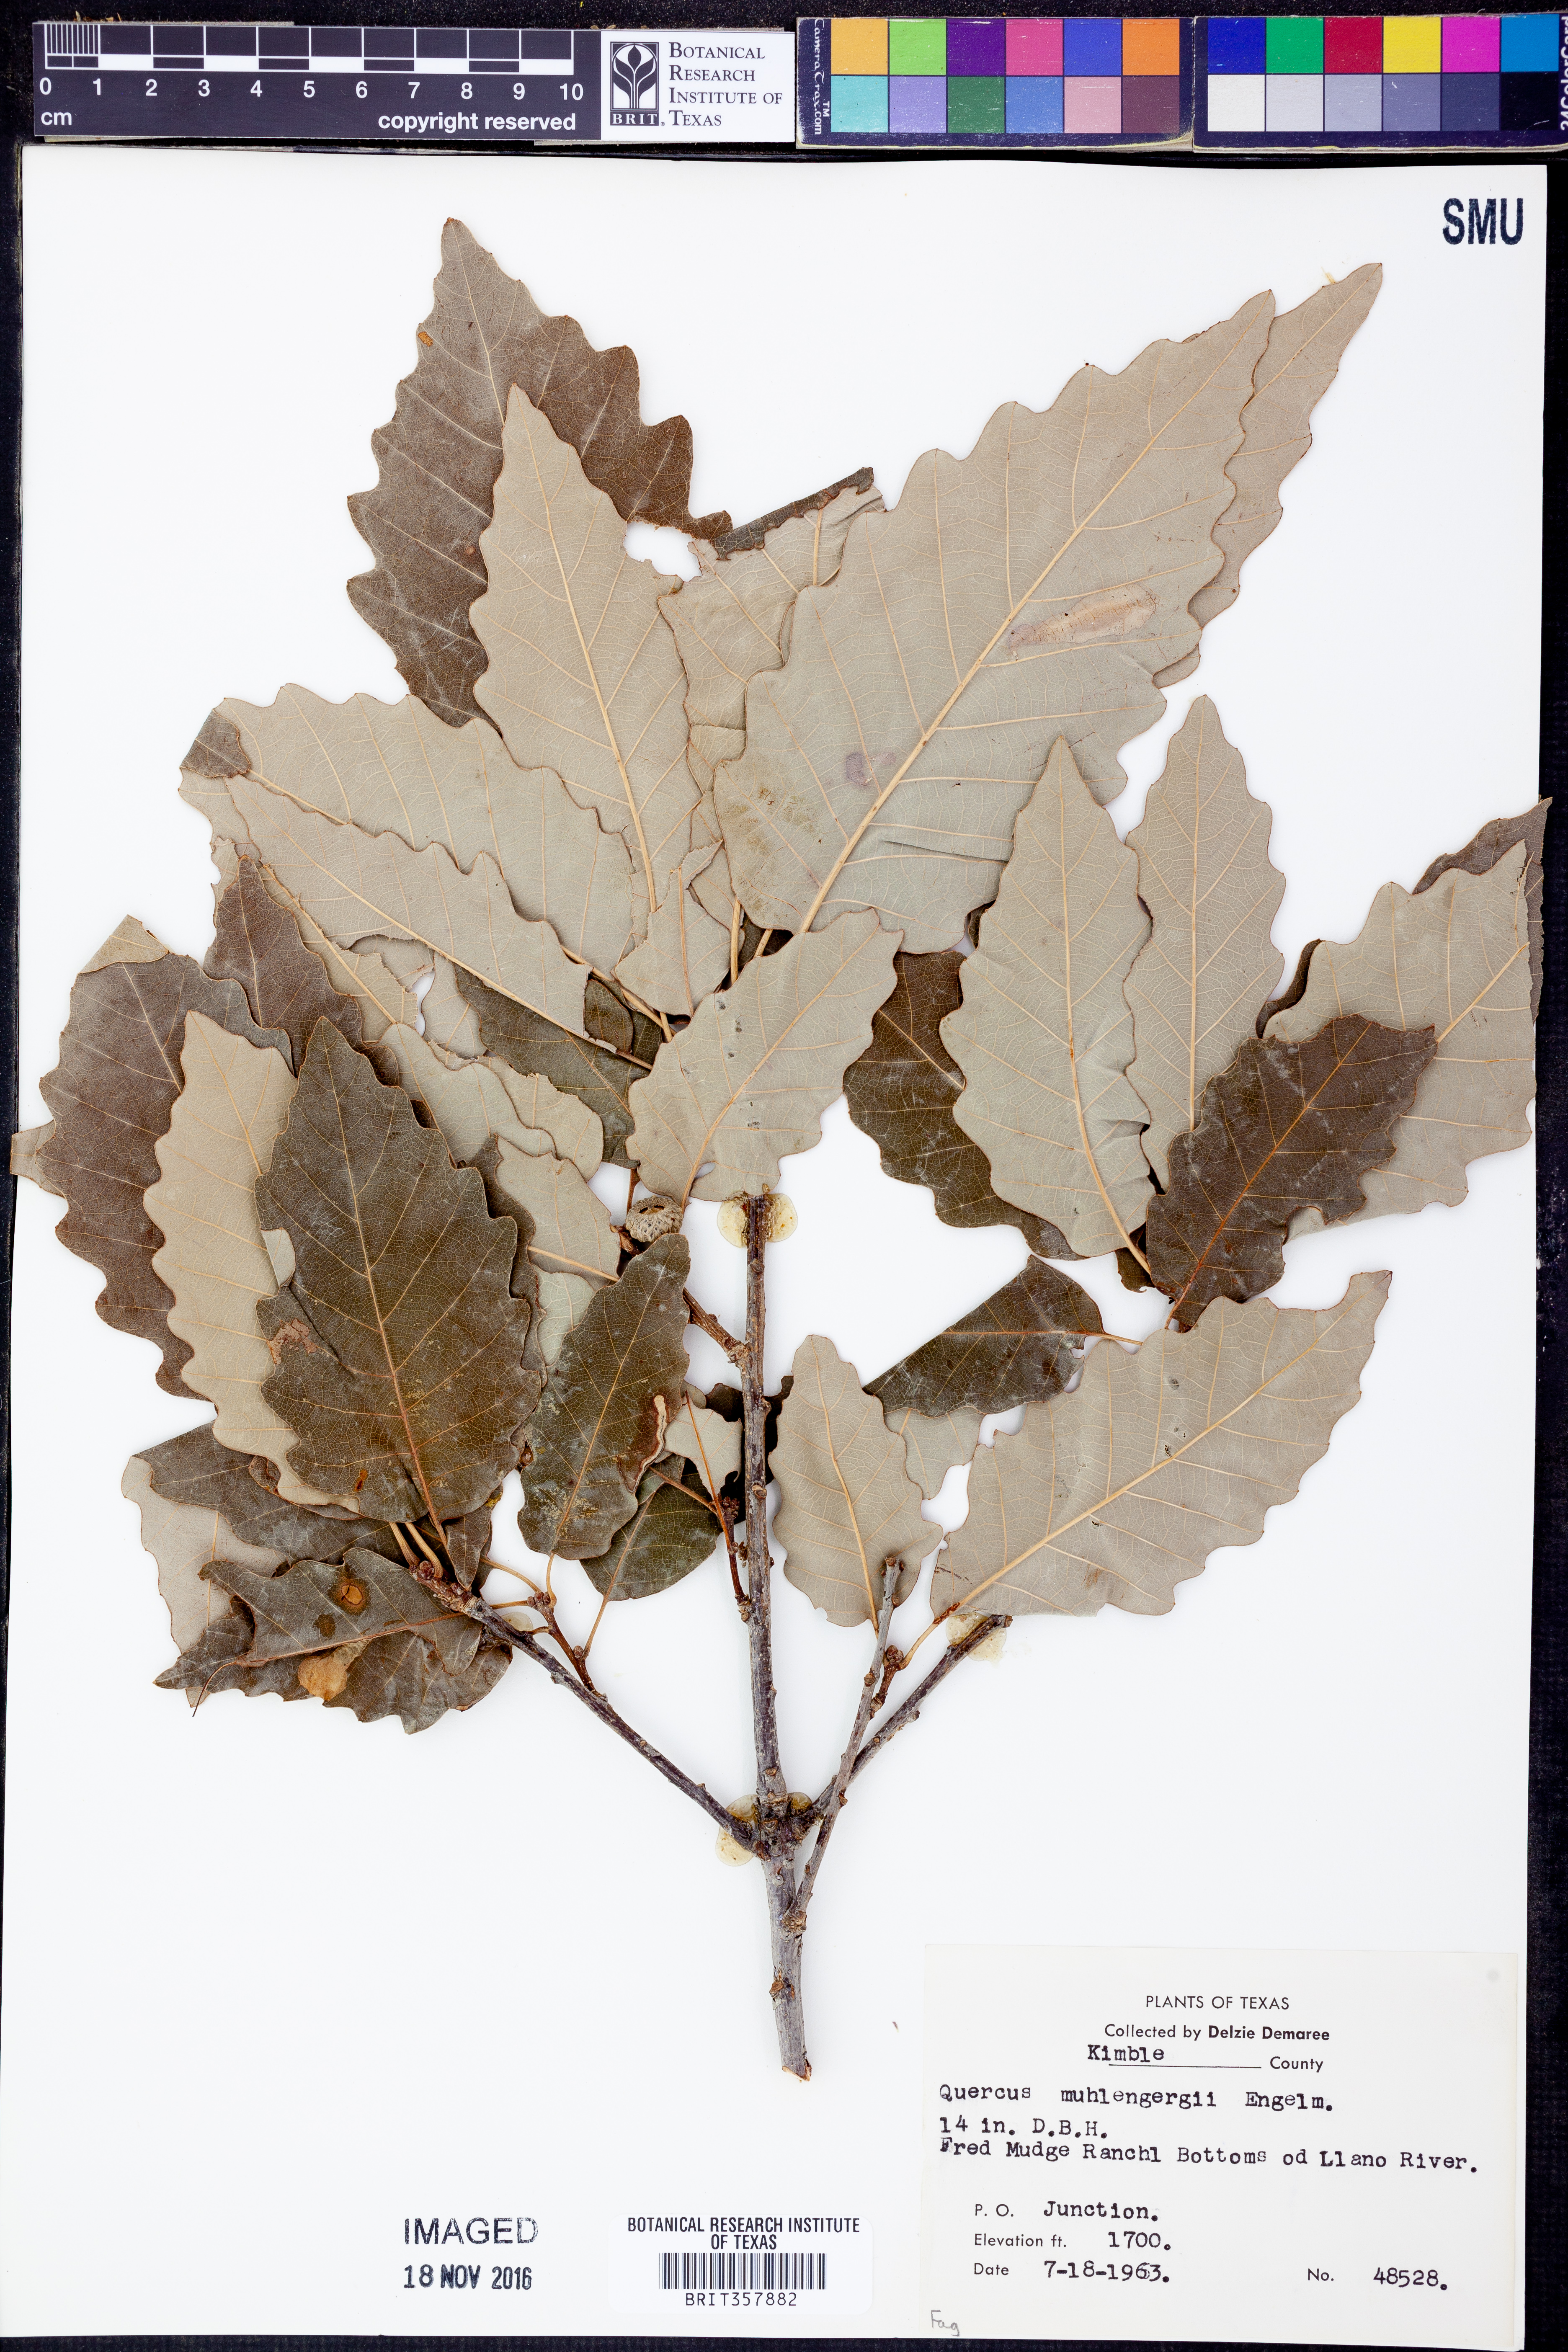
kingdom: Plantae
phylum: Tracheophyta
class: Magnoliopsida
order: Fagales
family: Fagaceae
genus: Quercus
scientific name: Quercus muehlenbergii
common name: Chinkapin oak
